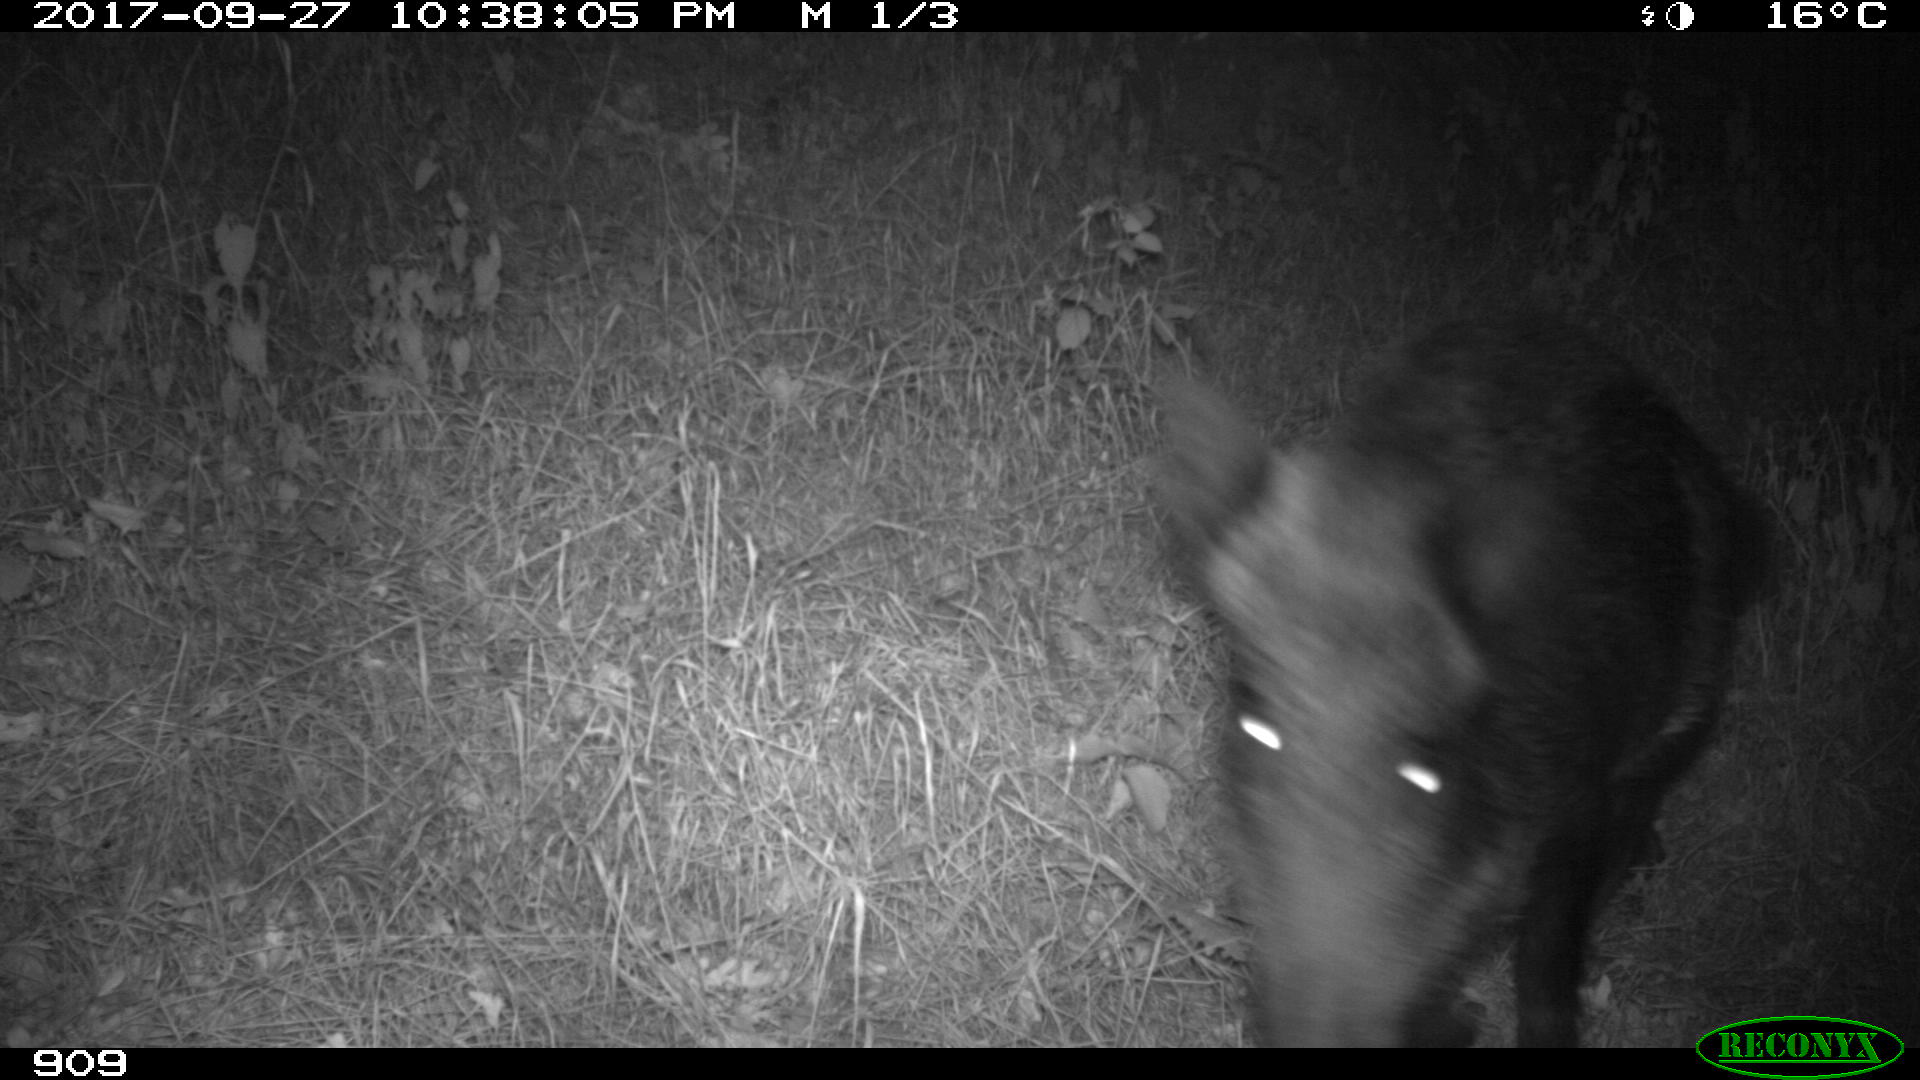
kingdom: Animalia
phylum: Chordata
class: Mammalia
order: Artiodactyla
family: Suidae
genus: Sus
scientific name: Sus scrofa
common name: Wild boar
